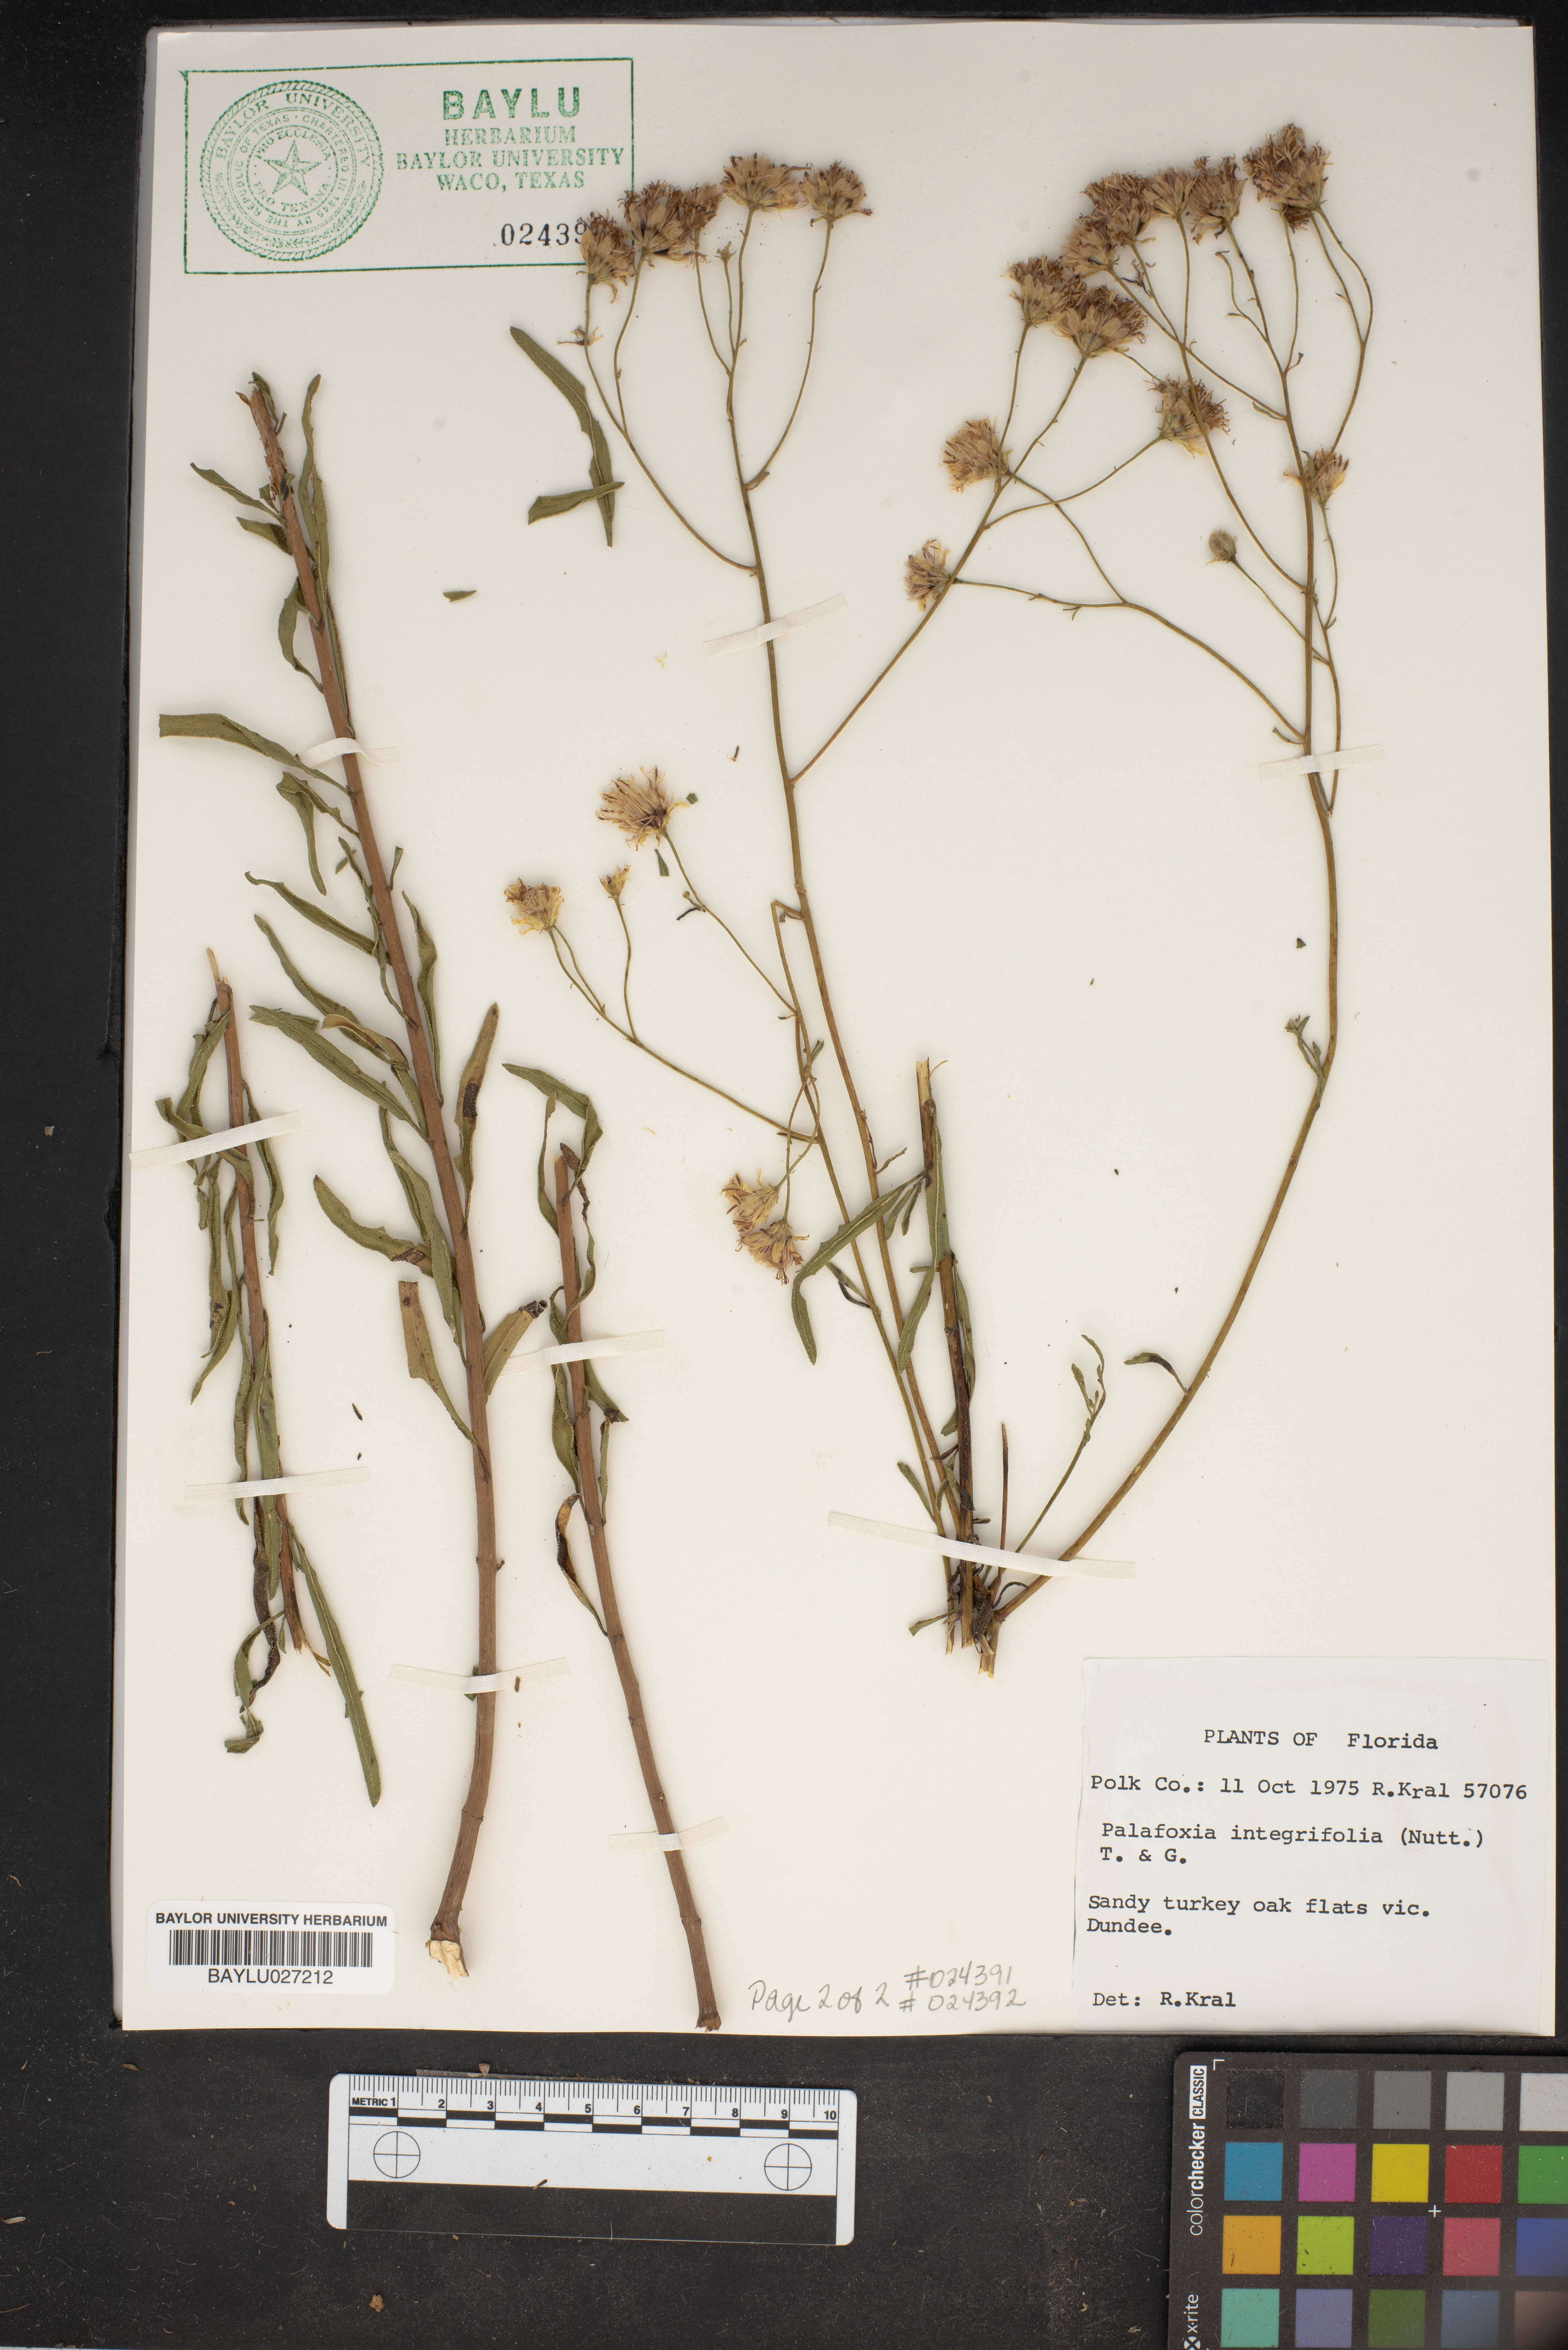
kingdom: Plantae
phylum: Tracheophyta
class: Magnoliopsida
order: Asterales
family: Asteraceae
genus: Palafoxia
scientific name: Palafoxia integrifolia
